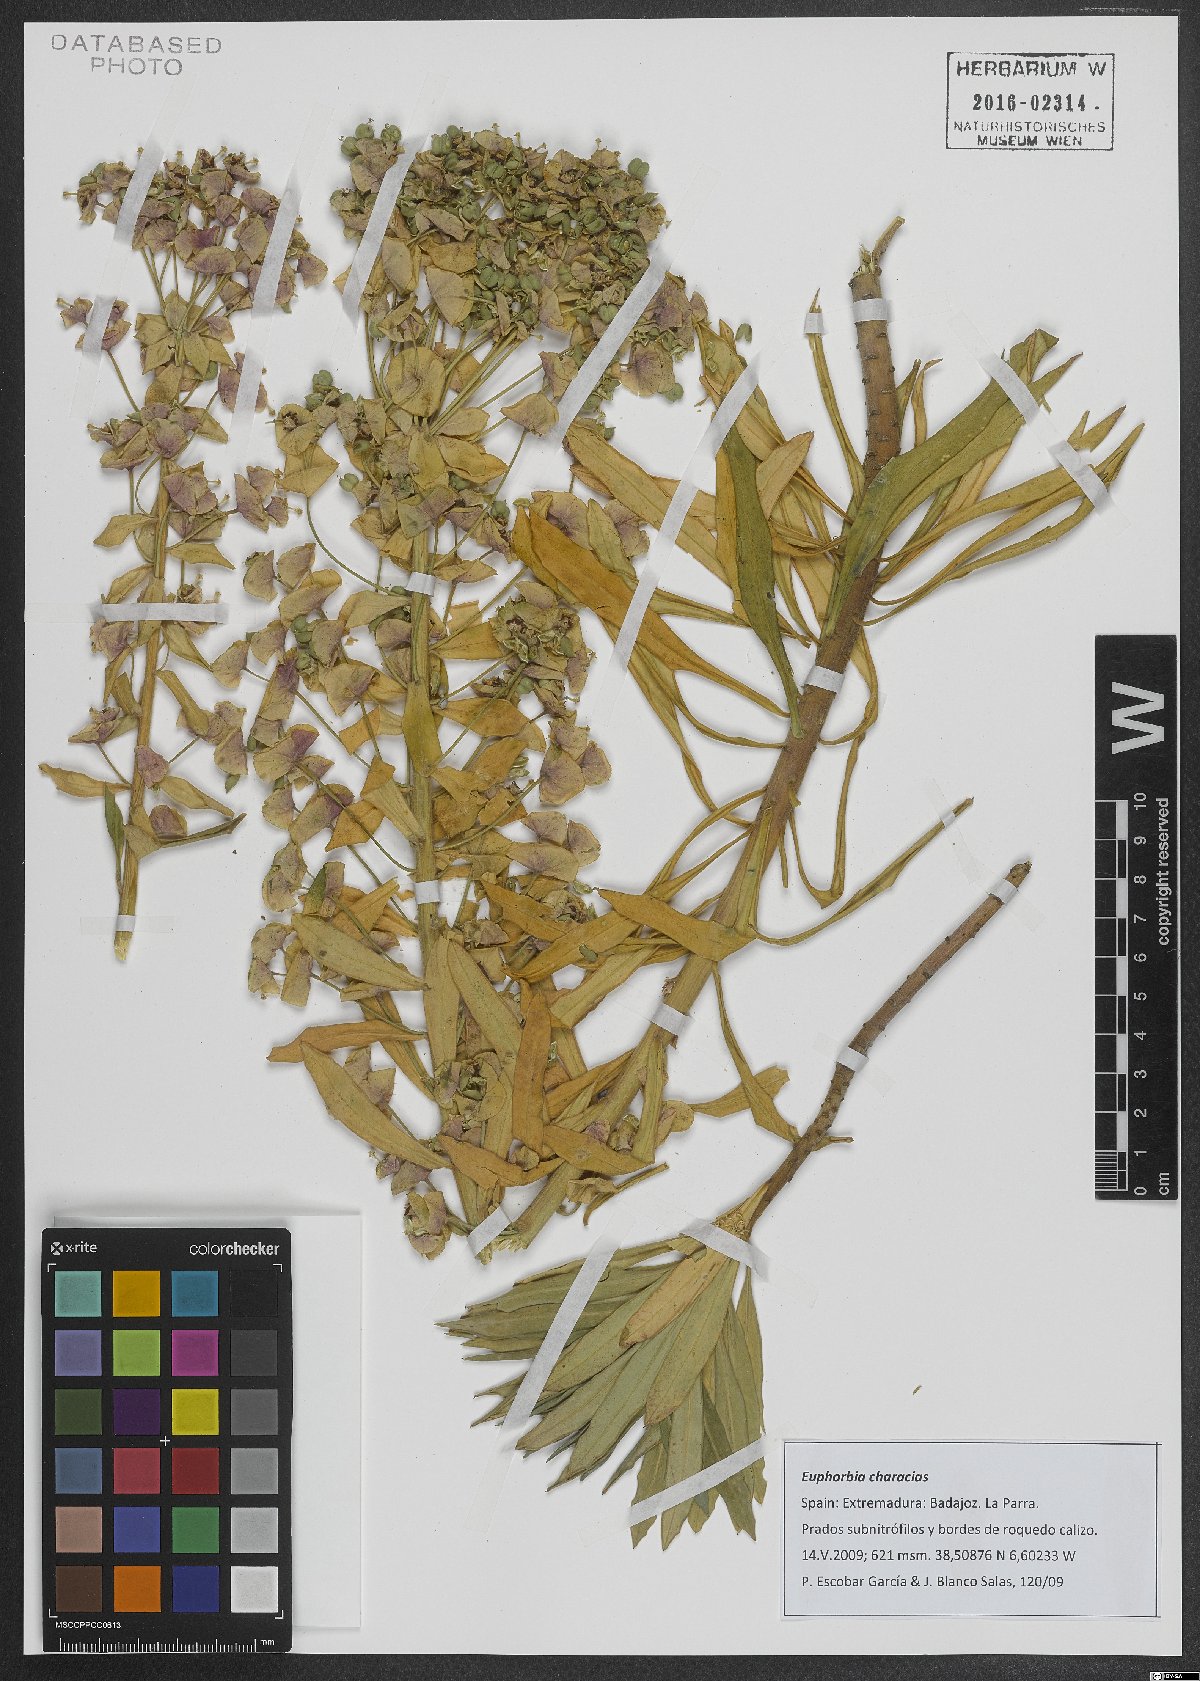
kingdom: Plantae
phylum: Tracheophyta
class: Magnoliopsida
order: Malpighiales
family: Euphorbiaceae
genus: Euphorbia
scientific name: Euphorbia characias
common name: Mediterranean spurge
